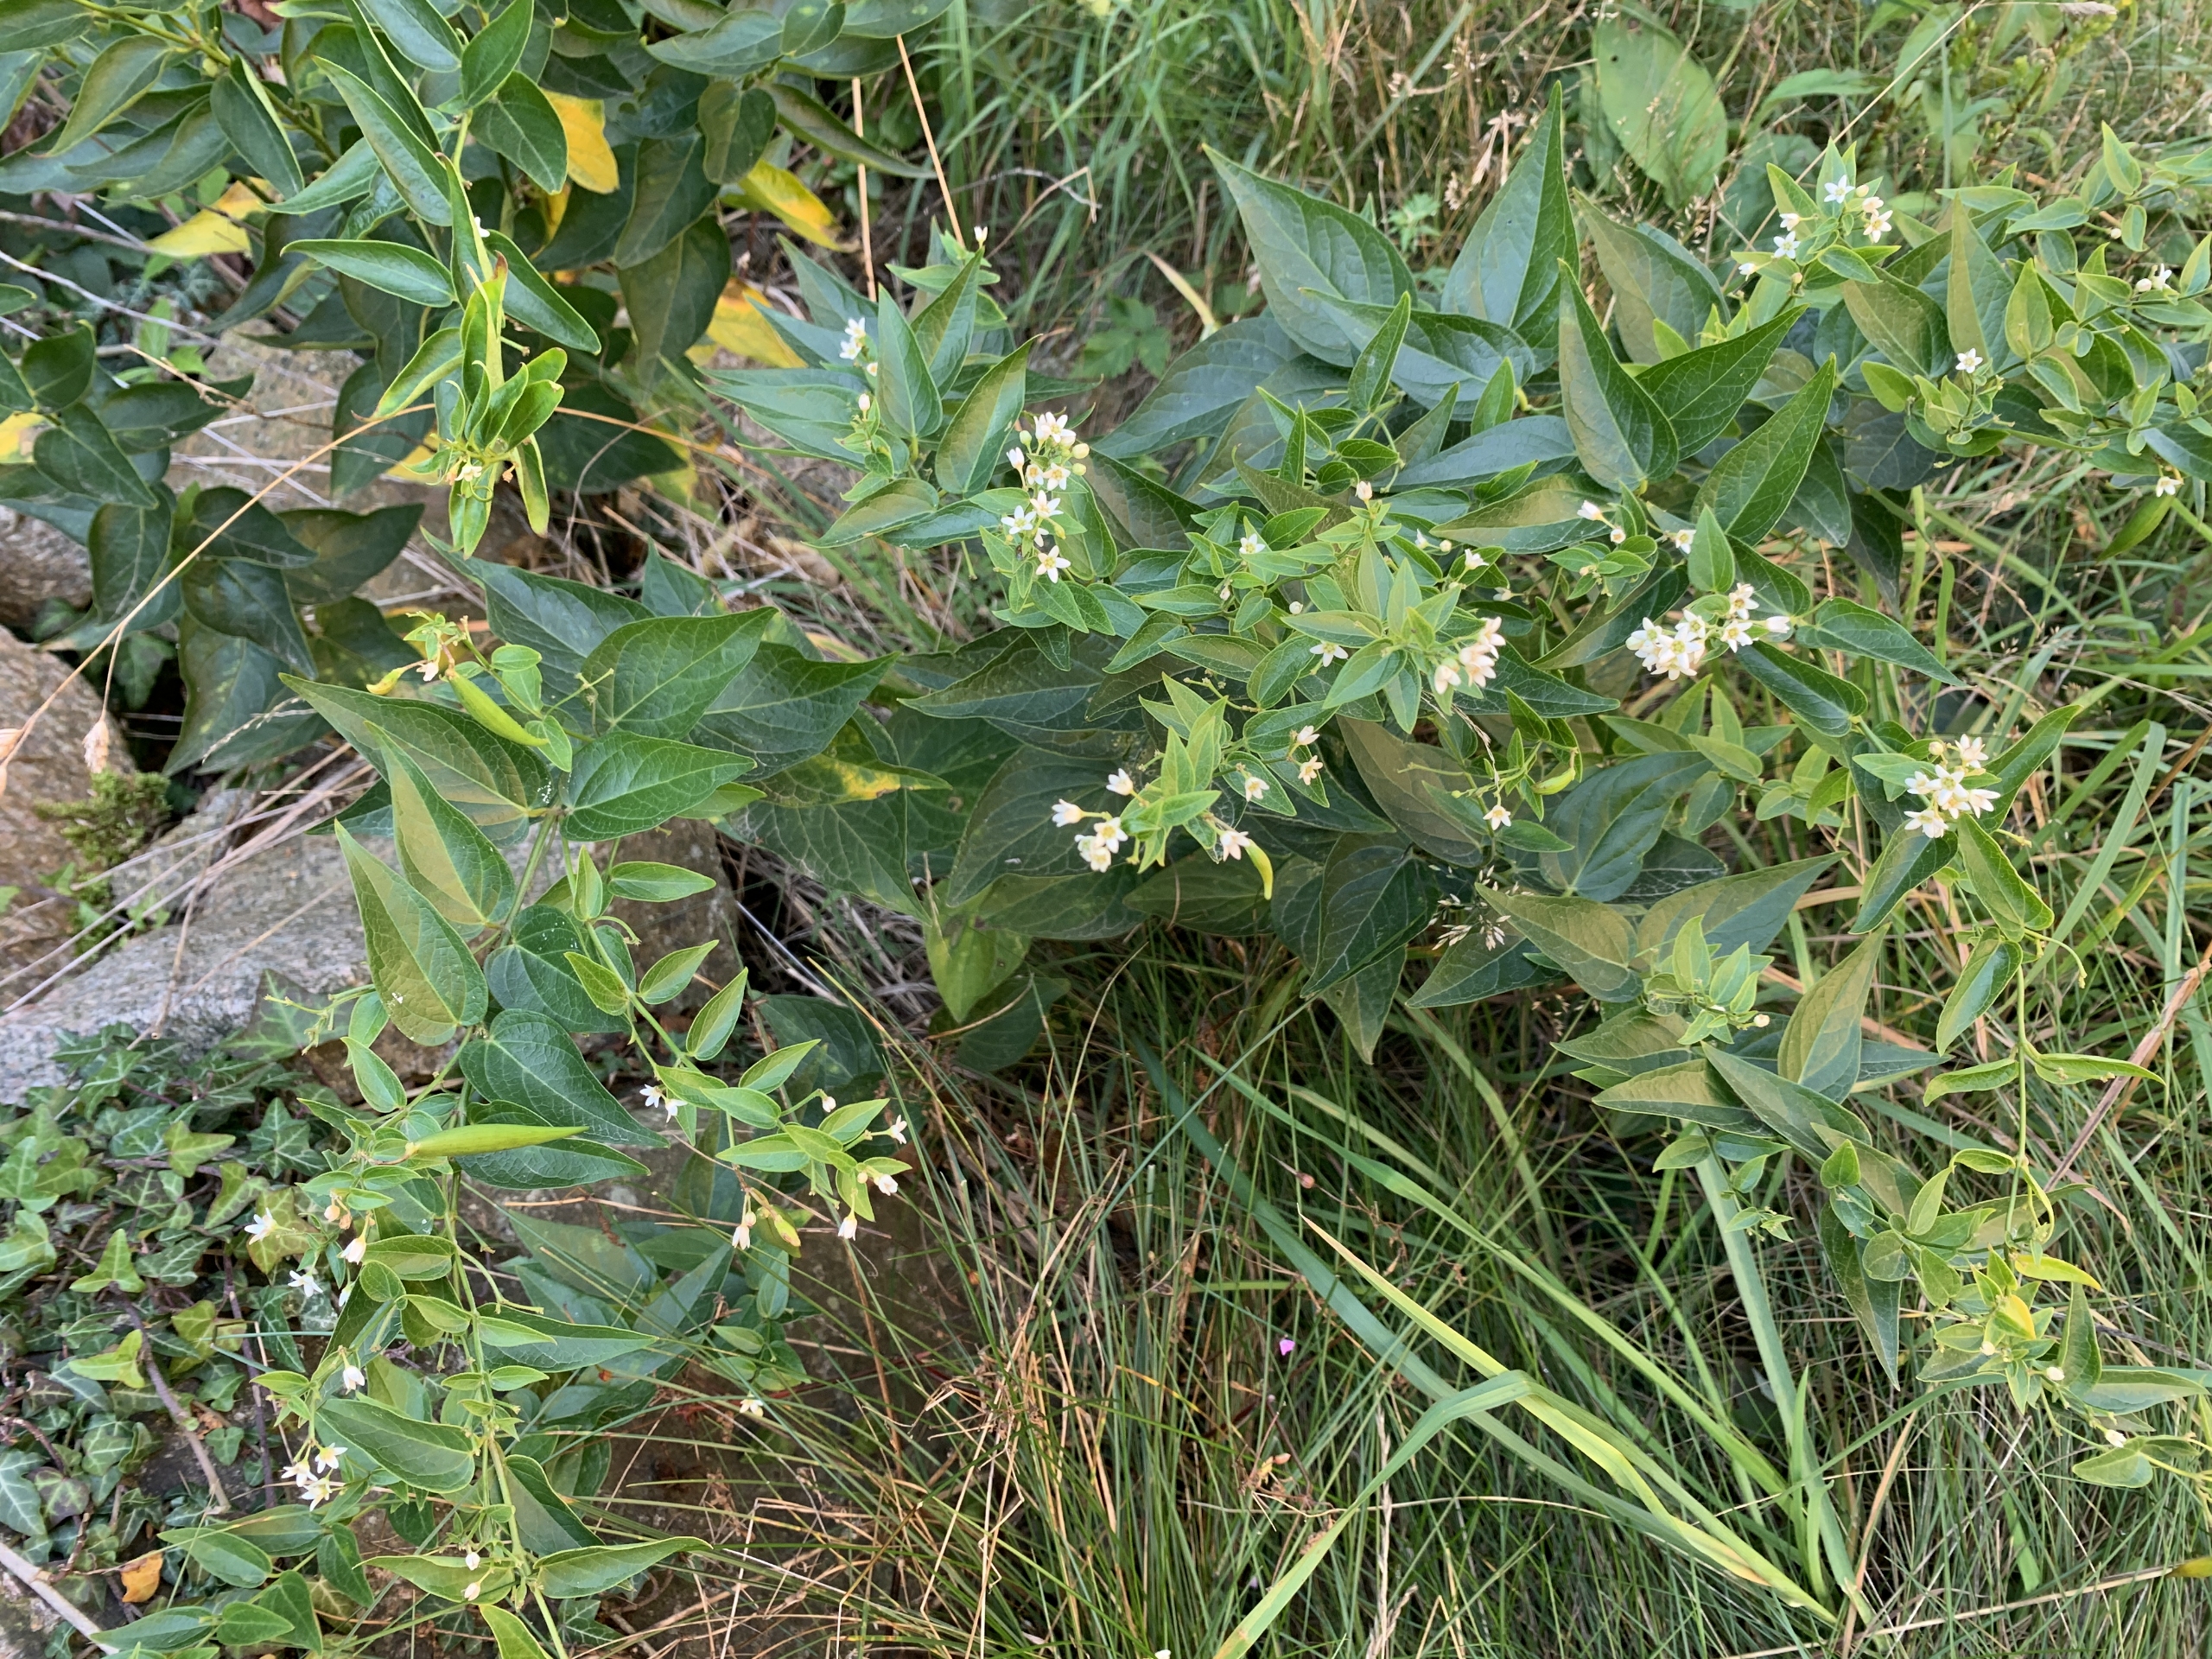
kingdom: Plantae
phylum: Tracheophyta
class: Magnoliopsida
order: Gentianales
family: Apocynaceae
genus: Vincetoxicum
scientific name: Vincetoxicum hirundinaria
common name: Svalerod
